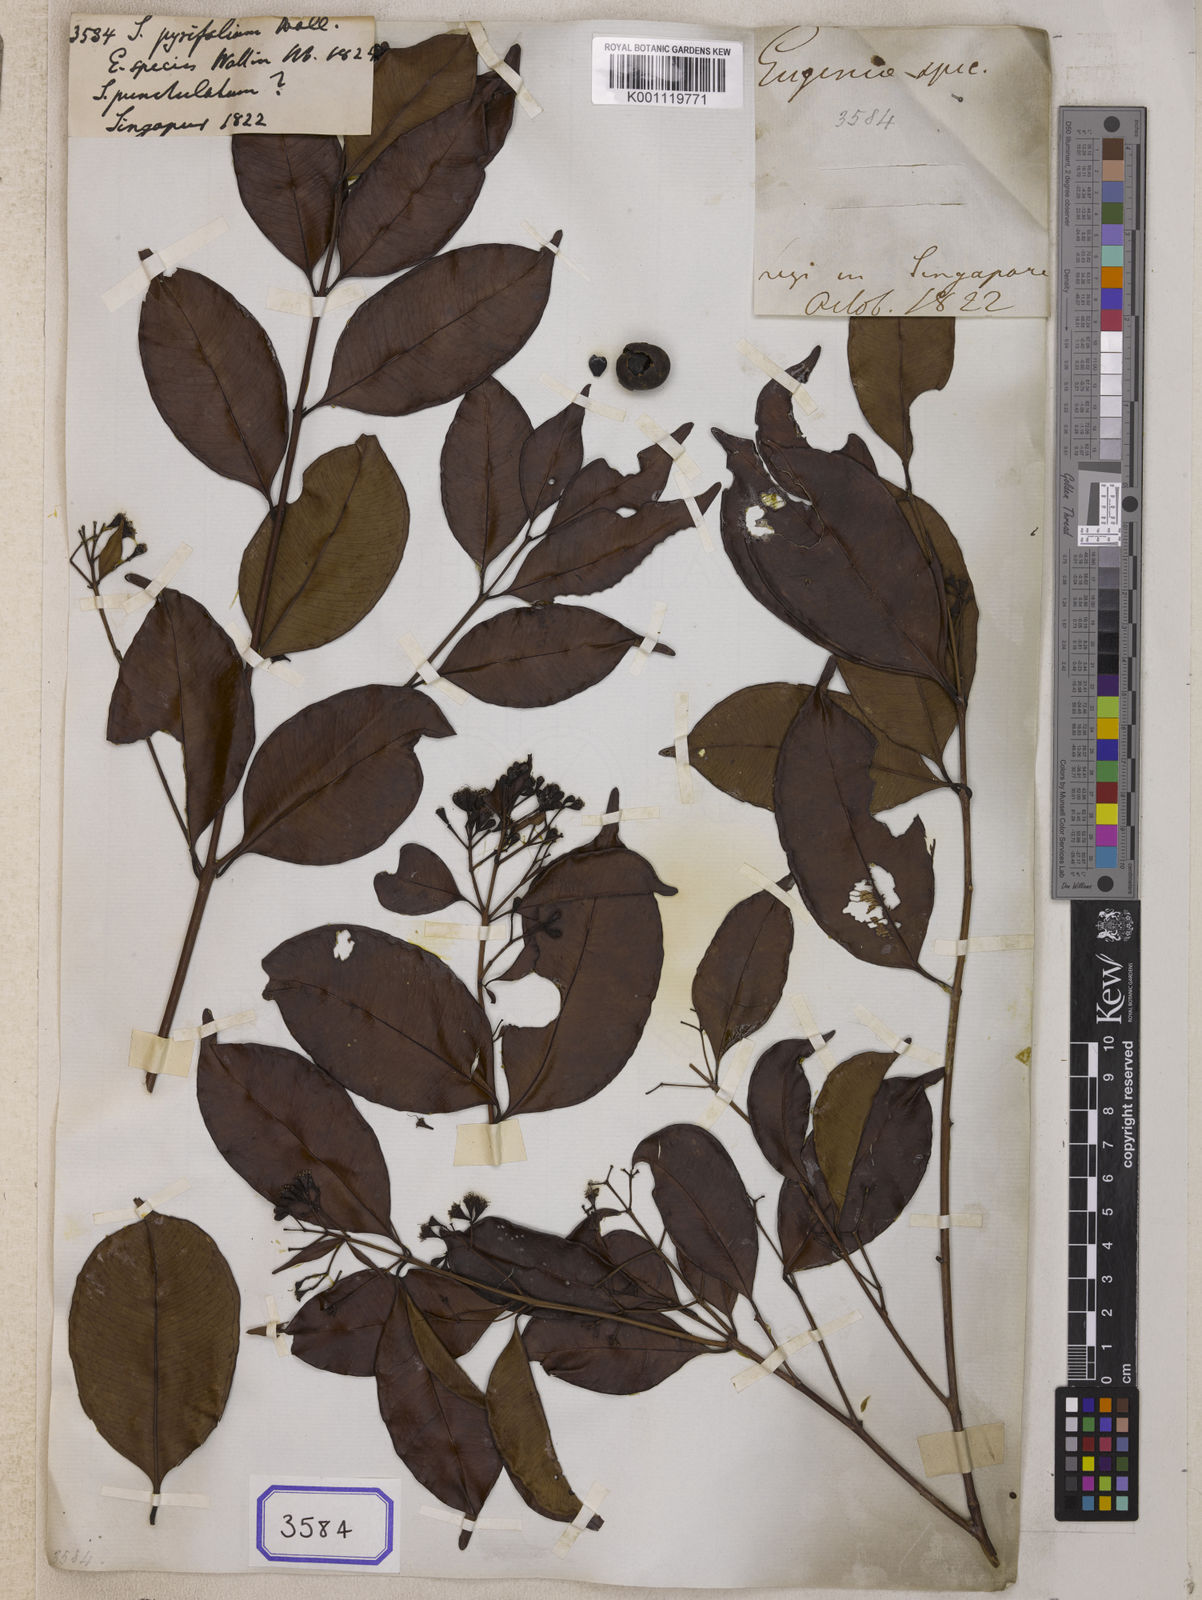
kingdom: Plantae
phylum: Tracheophyta
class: Magnoliopsida
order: Myrtales
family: Myrtaceae
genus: Syzygium
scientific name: Syzygium
